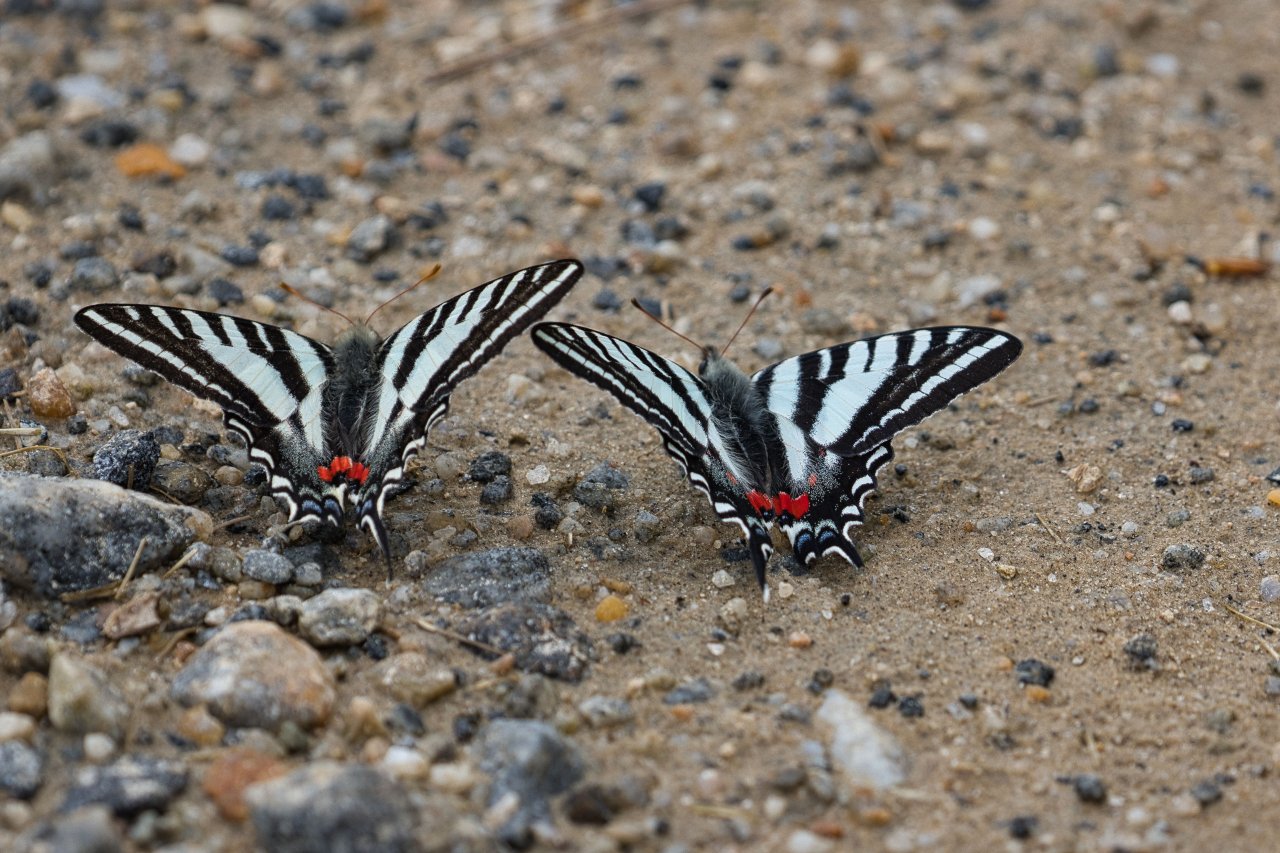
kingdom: Animalia
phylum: Arthropoda
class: Insecta
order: Lepidoptera
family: Papilionidae
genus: Protographium
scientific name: Protographium marcellus
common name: Zebra Swallowtail
